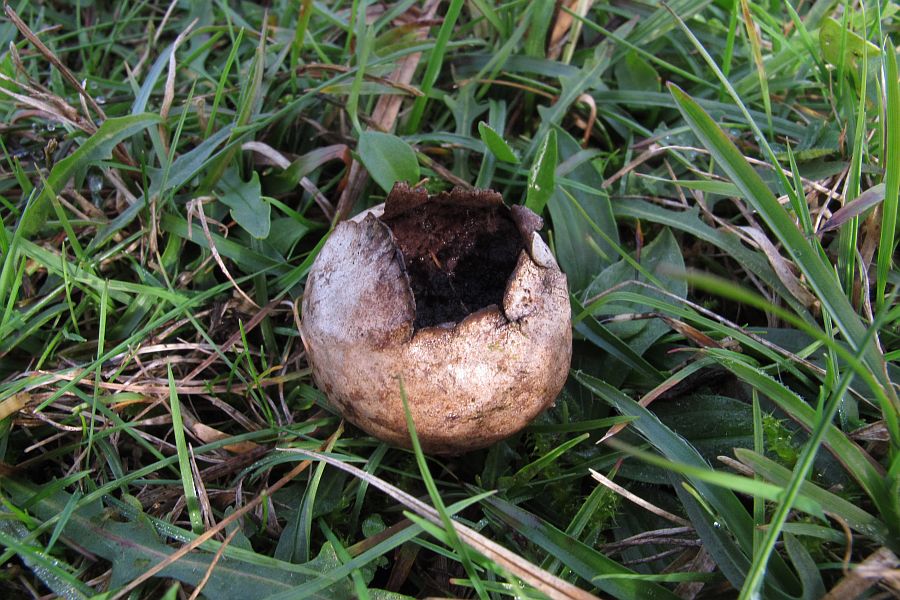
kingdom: Fungi
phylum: Basidiomycota
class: Agaricomycetes
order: Agaricales
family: Lycoperdaceae
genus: Bovista
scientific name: Bovista nigrescens
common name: sortagtig bovist
